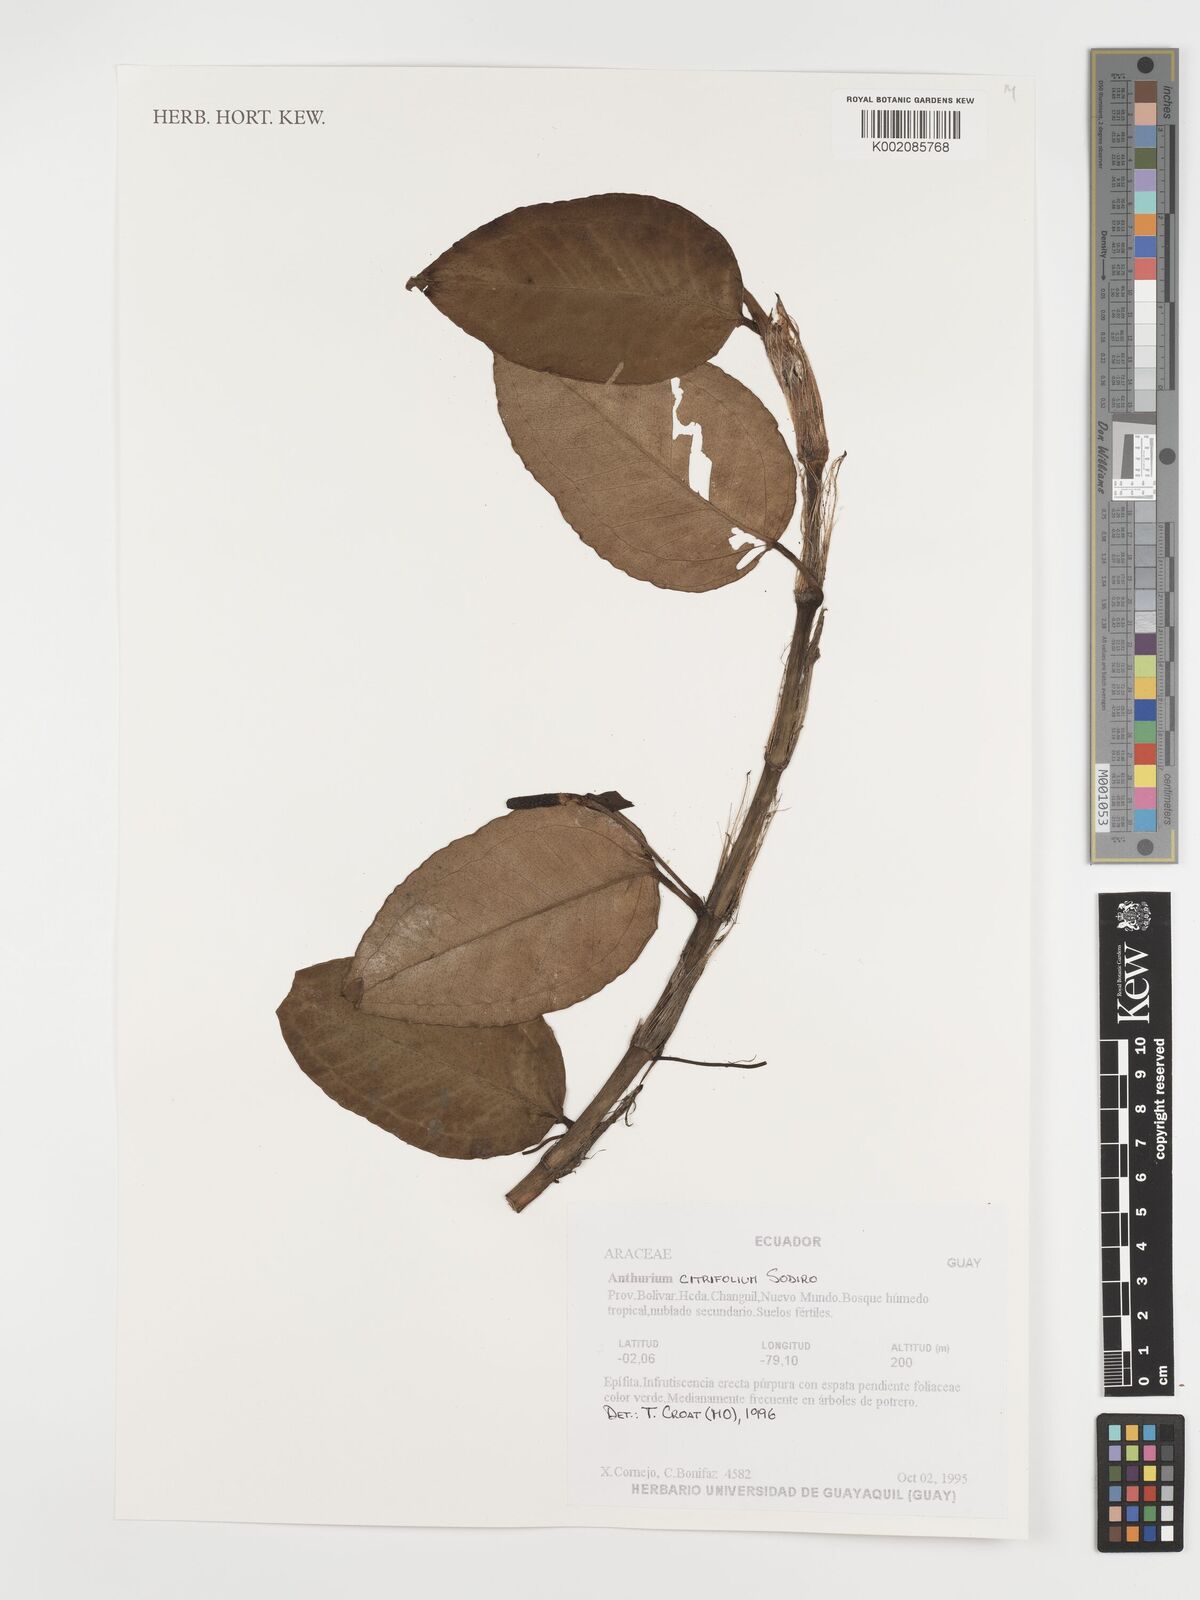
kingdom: Plantae
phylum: Tracheophyta
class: Liliopsida
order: Alismatales
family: Araceae
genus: Anthurium
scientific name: Anthurium citrifolium
